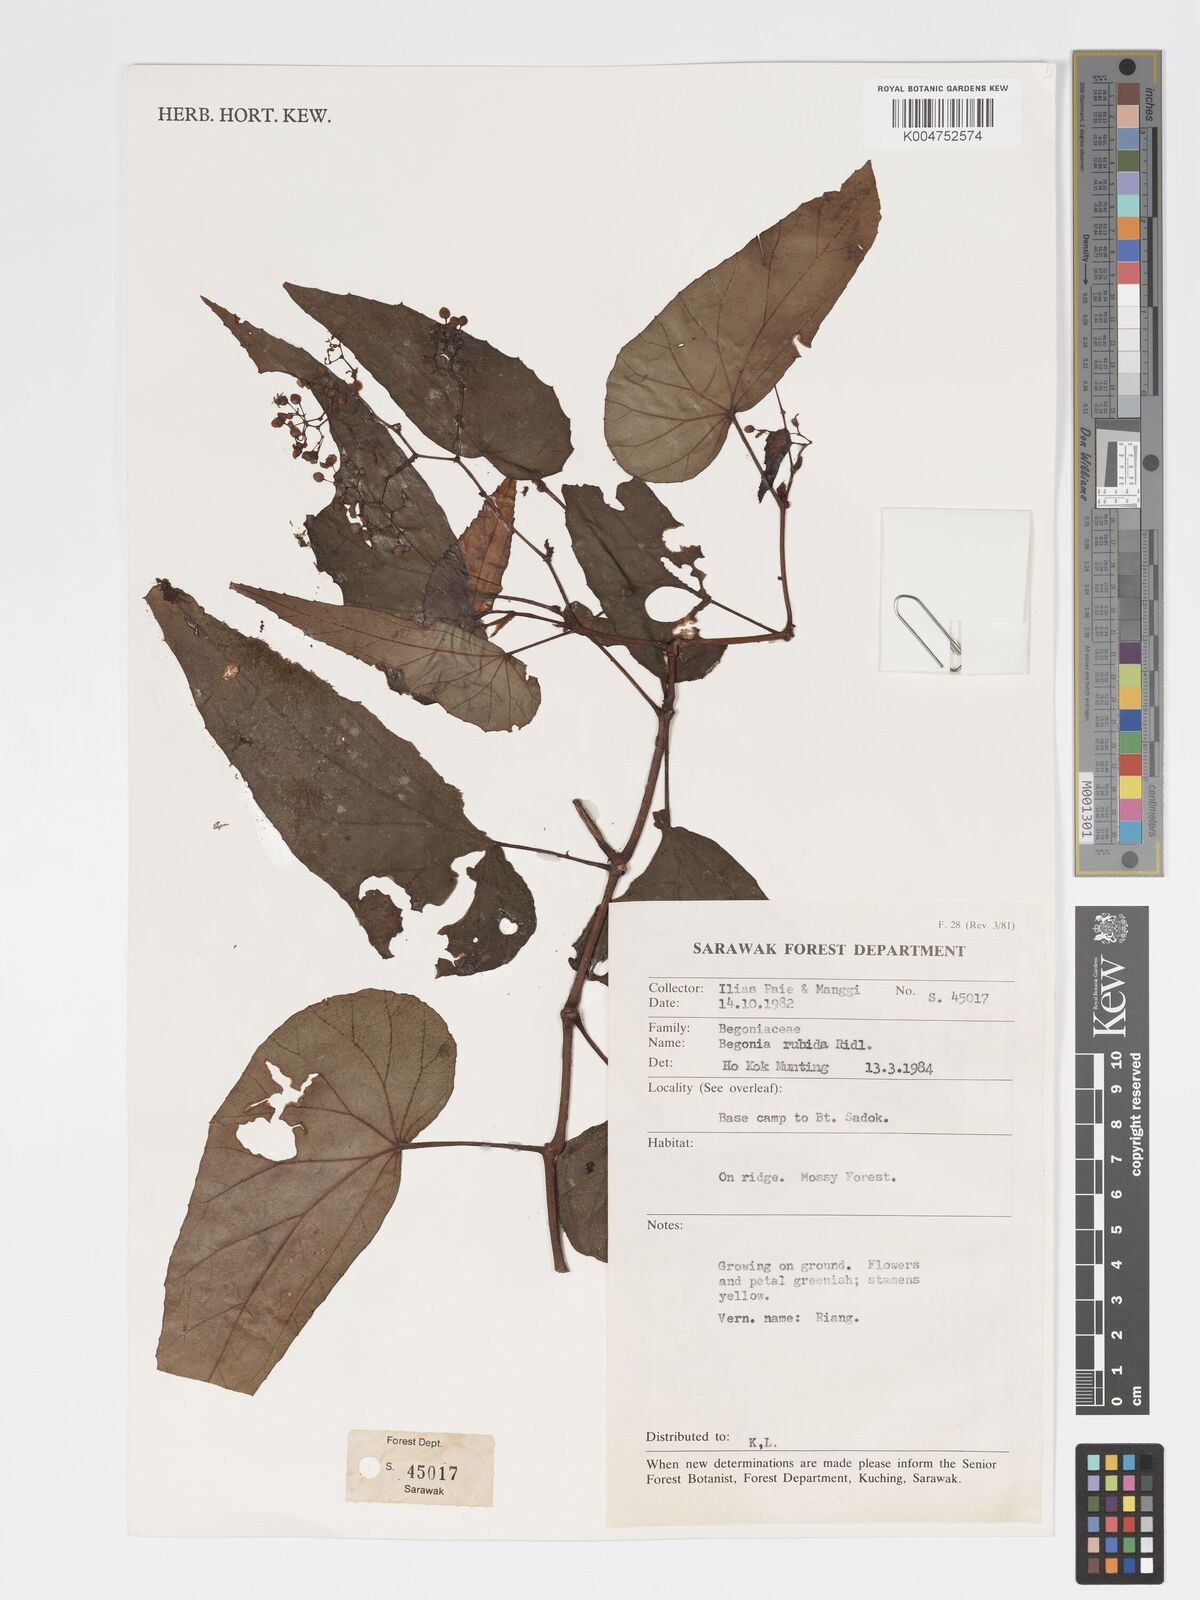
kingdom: Plantae
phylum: Tracheophyta
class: Magnoliopsida
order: Cucurbitales
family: Begoniaceae
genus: Begonia
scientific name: Begonia rubida
